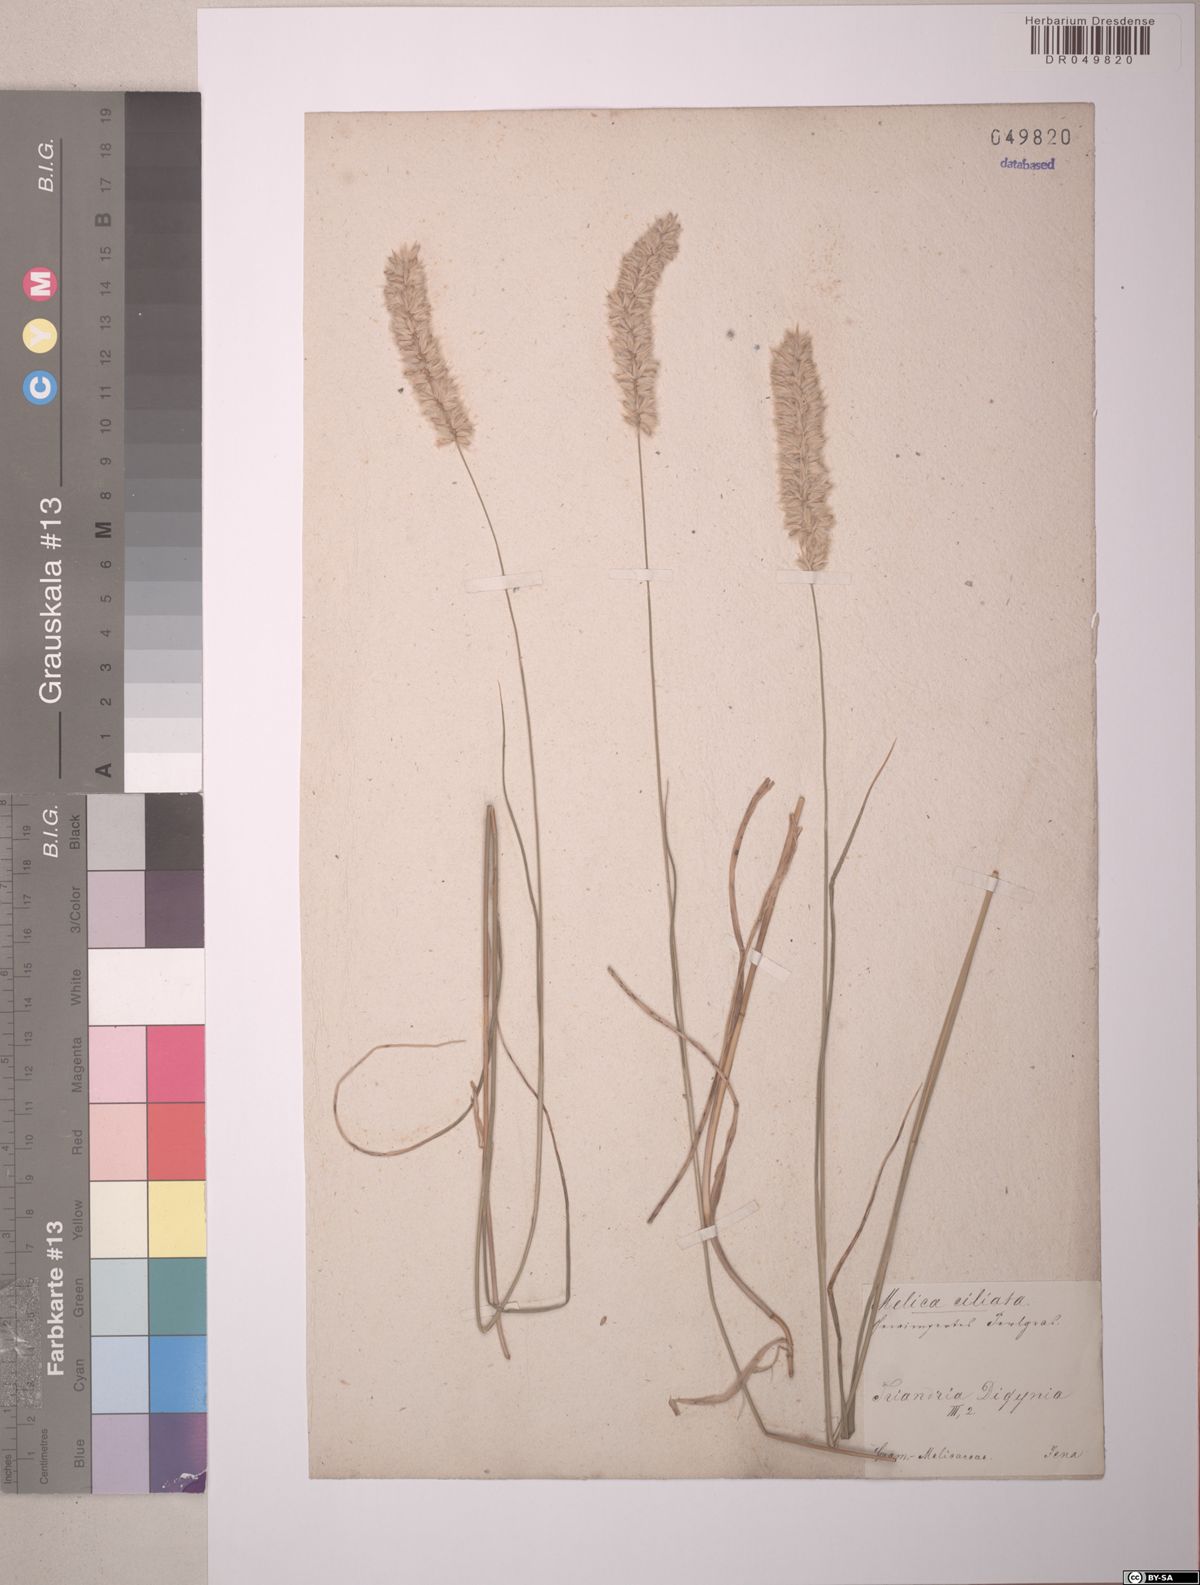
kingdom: Plantae
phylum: Tracheophyta
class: Liliopsida
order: Poales
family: Poaceae
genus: Melica
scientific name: Melica ciliata
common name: Hairy melicgrass
